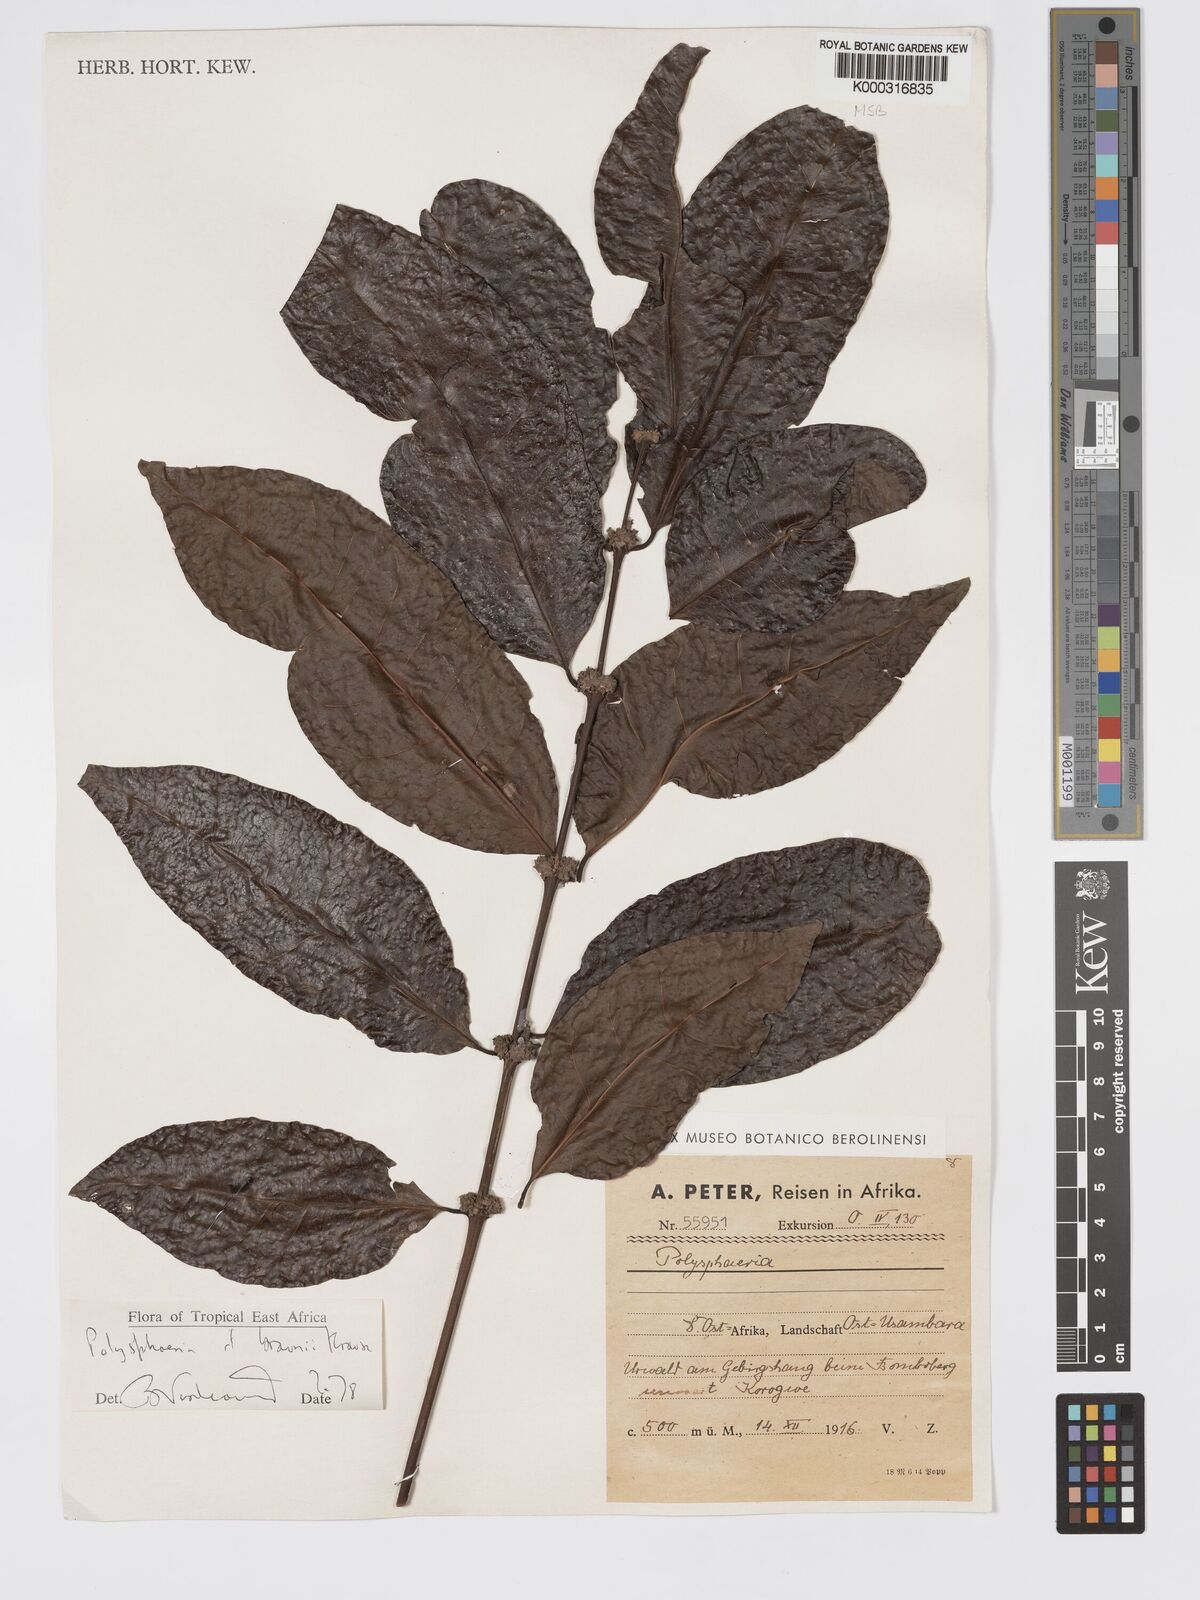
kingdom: Plantae
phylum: Tracheophyta
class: Magnoliopsida
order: Gentianales
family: Rubiaceae
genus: Polysphaeria
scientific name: Polysphaeria braunii
